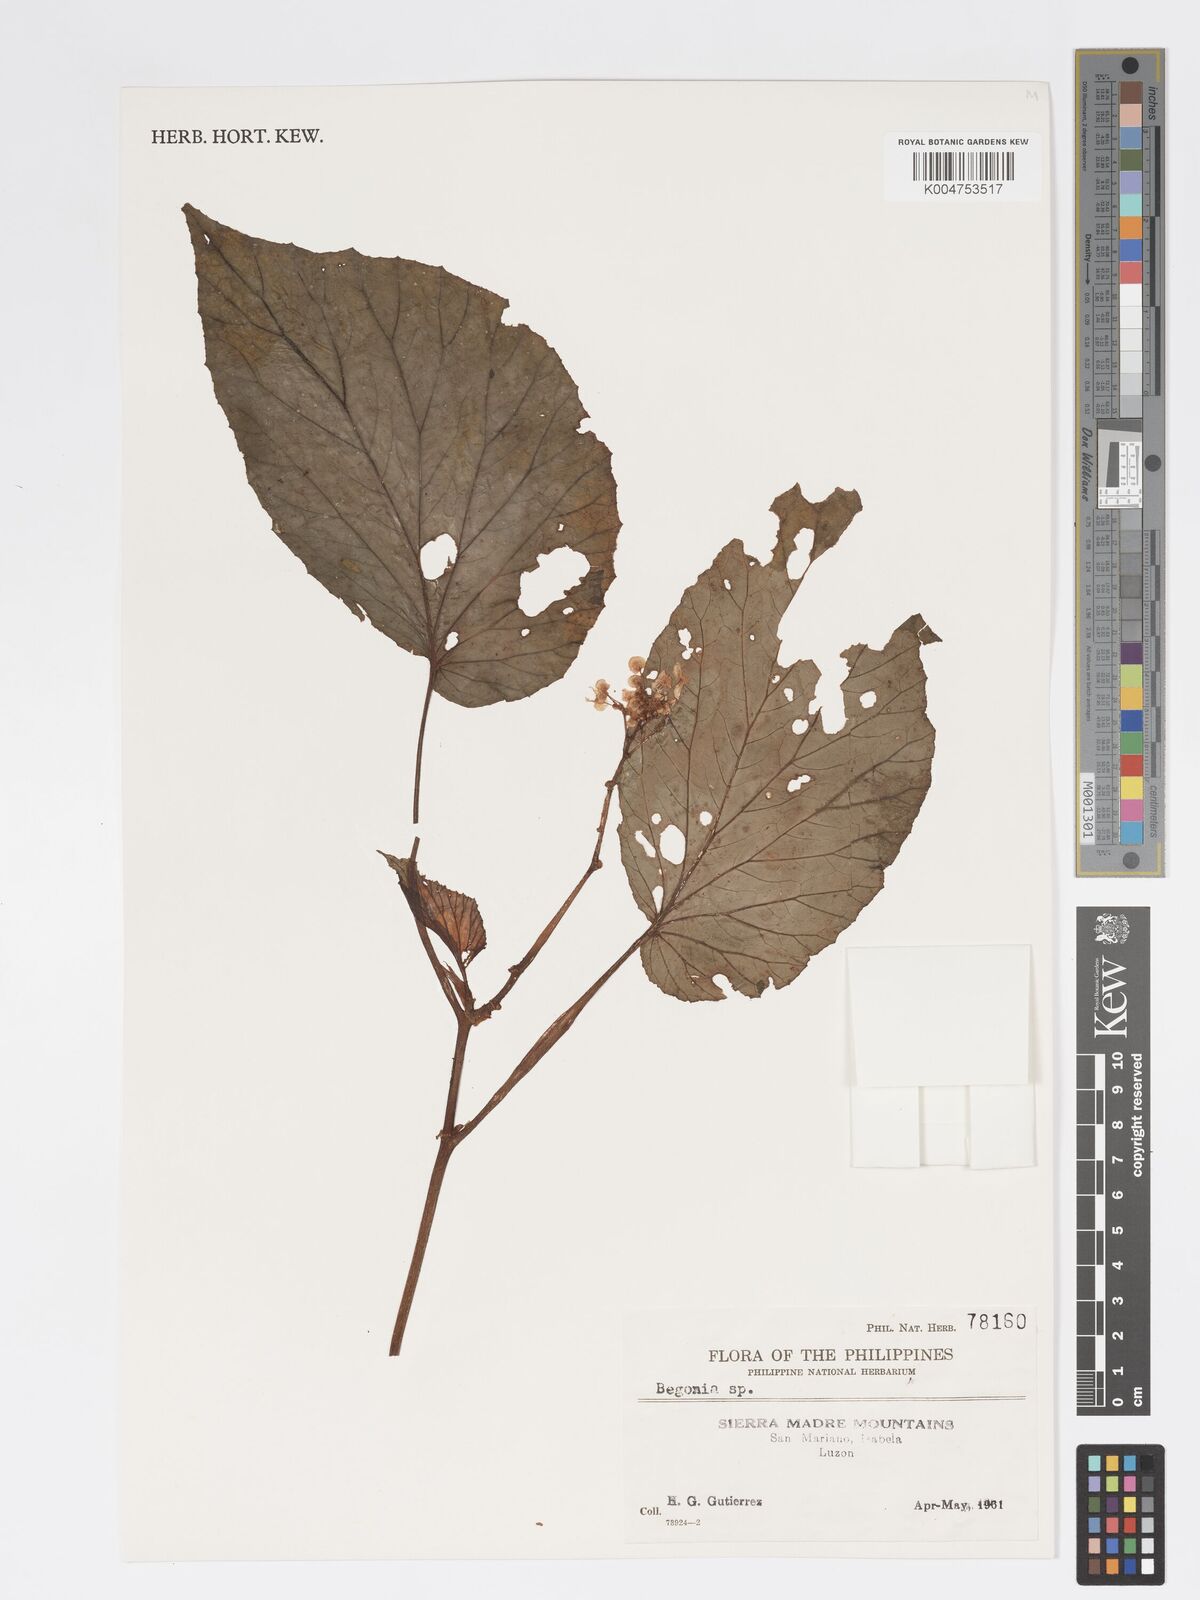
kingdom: Plantae
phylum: Tracheophyta
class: Magnoliopsida
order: Cucurbitales
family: Begoniaceae
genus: Begonia
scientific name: Begonia
